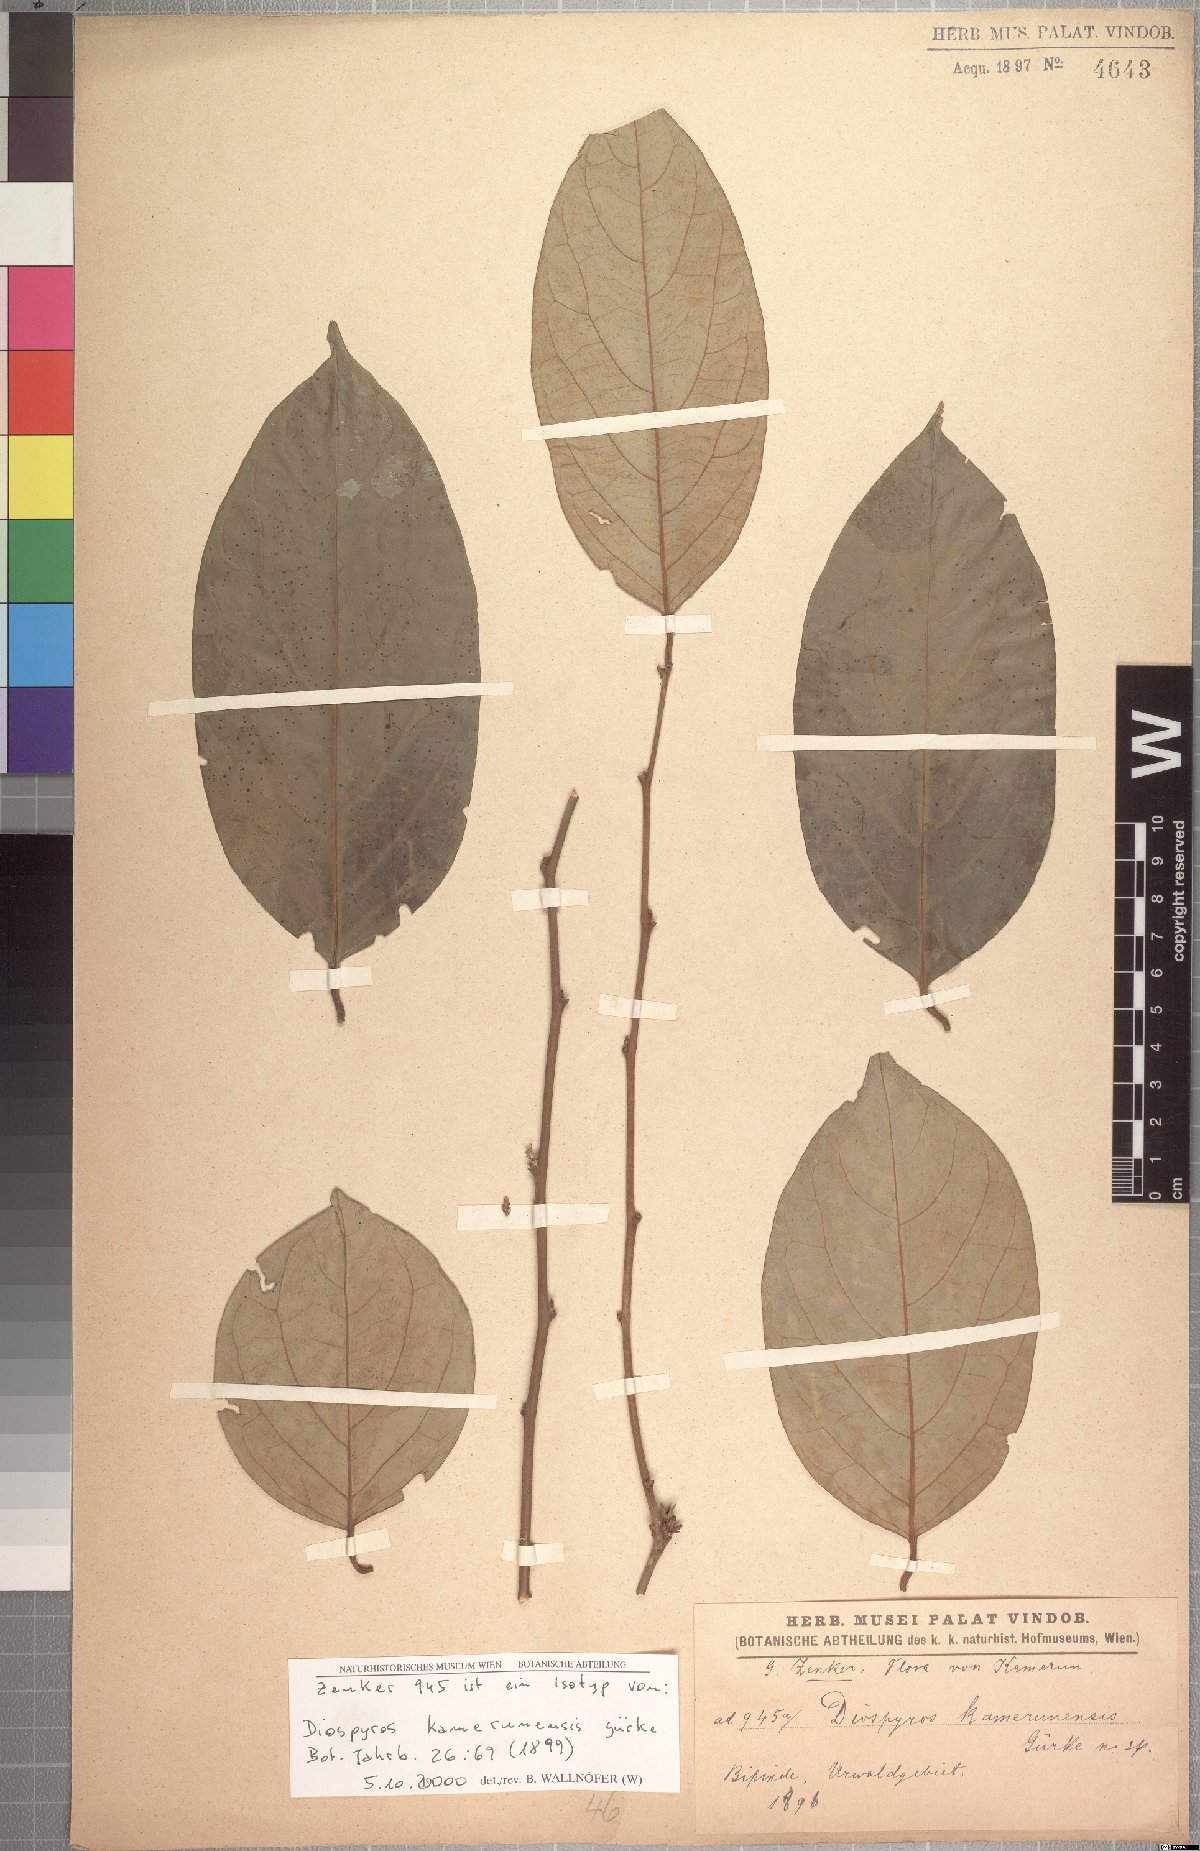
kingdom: Plantae
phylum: Tracheophyta
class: Magnoliopsida
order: Ericales
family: Ebenaceae
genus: Diospyros
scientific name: Diospyros kamerunensis
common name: African ebony
